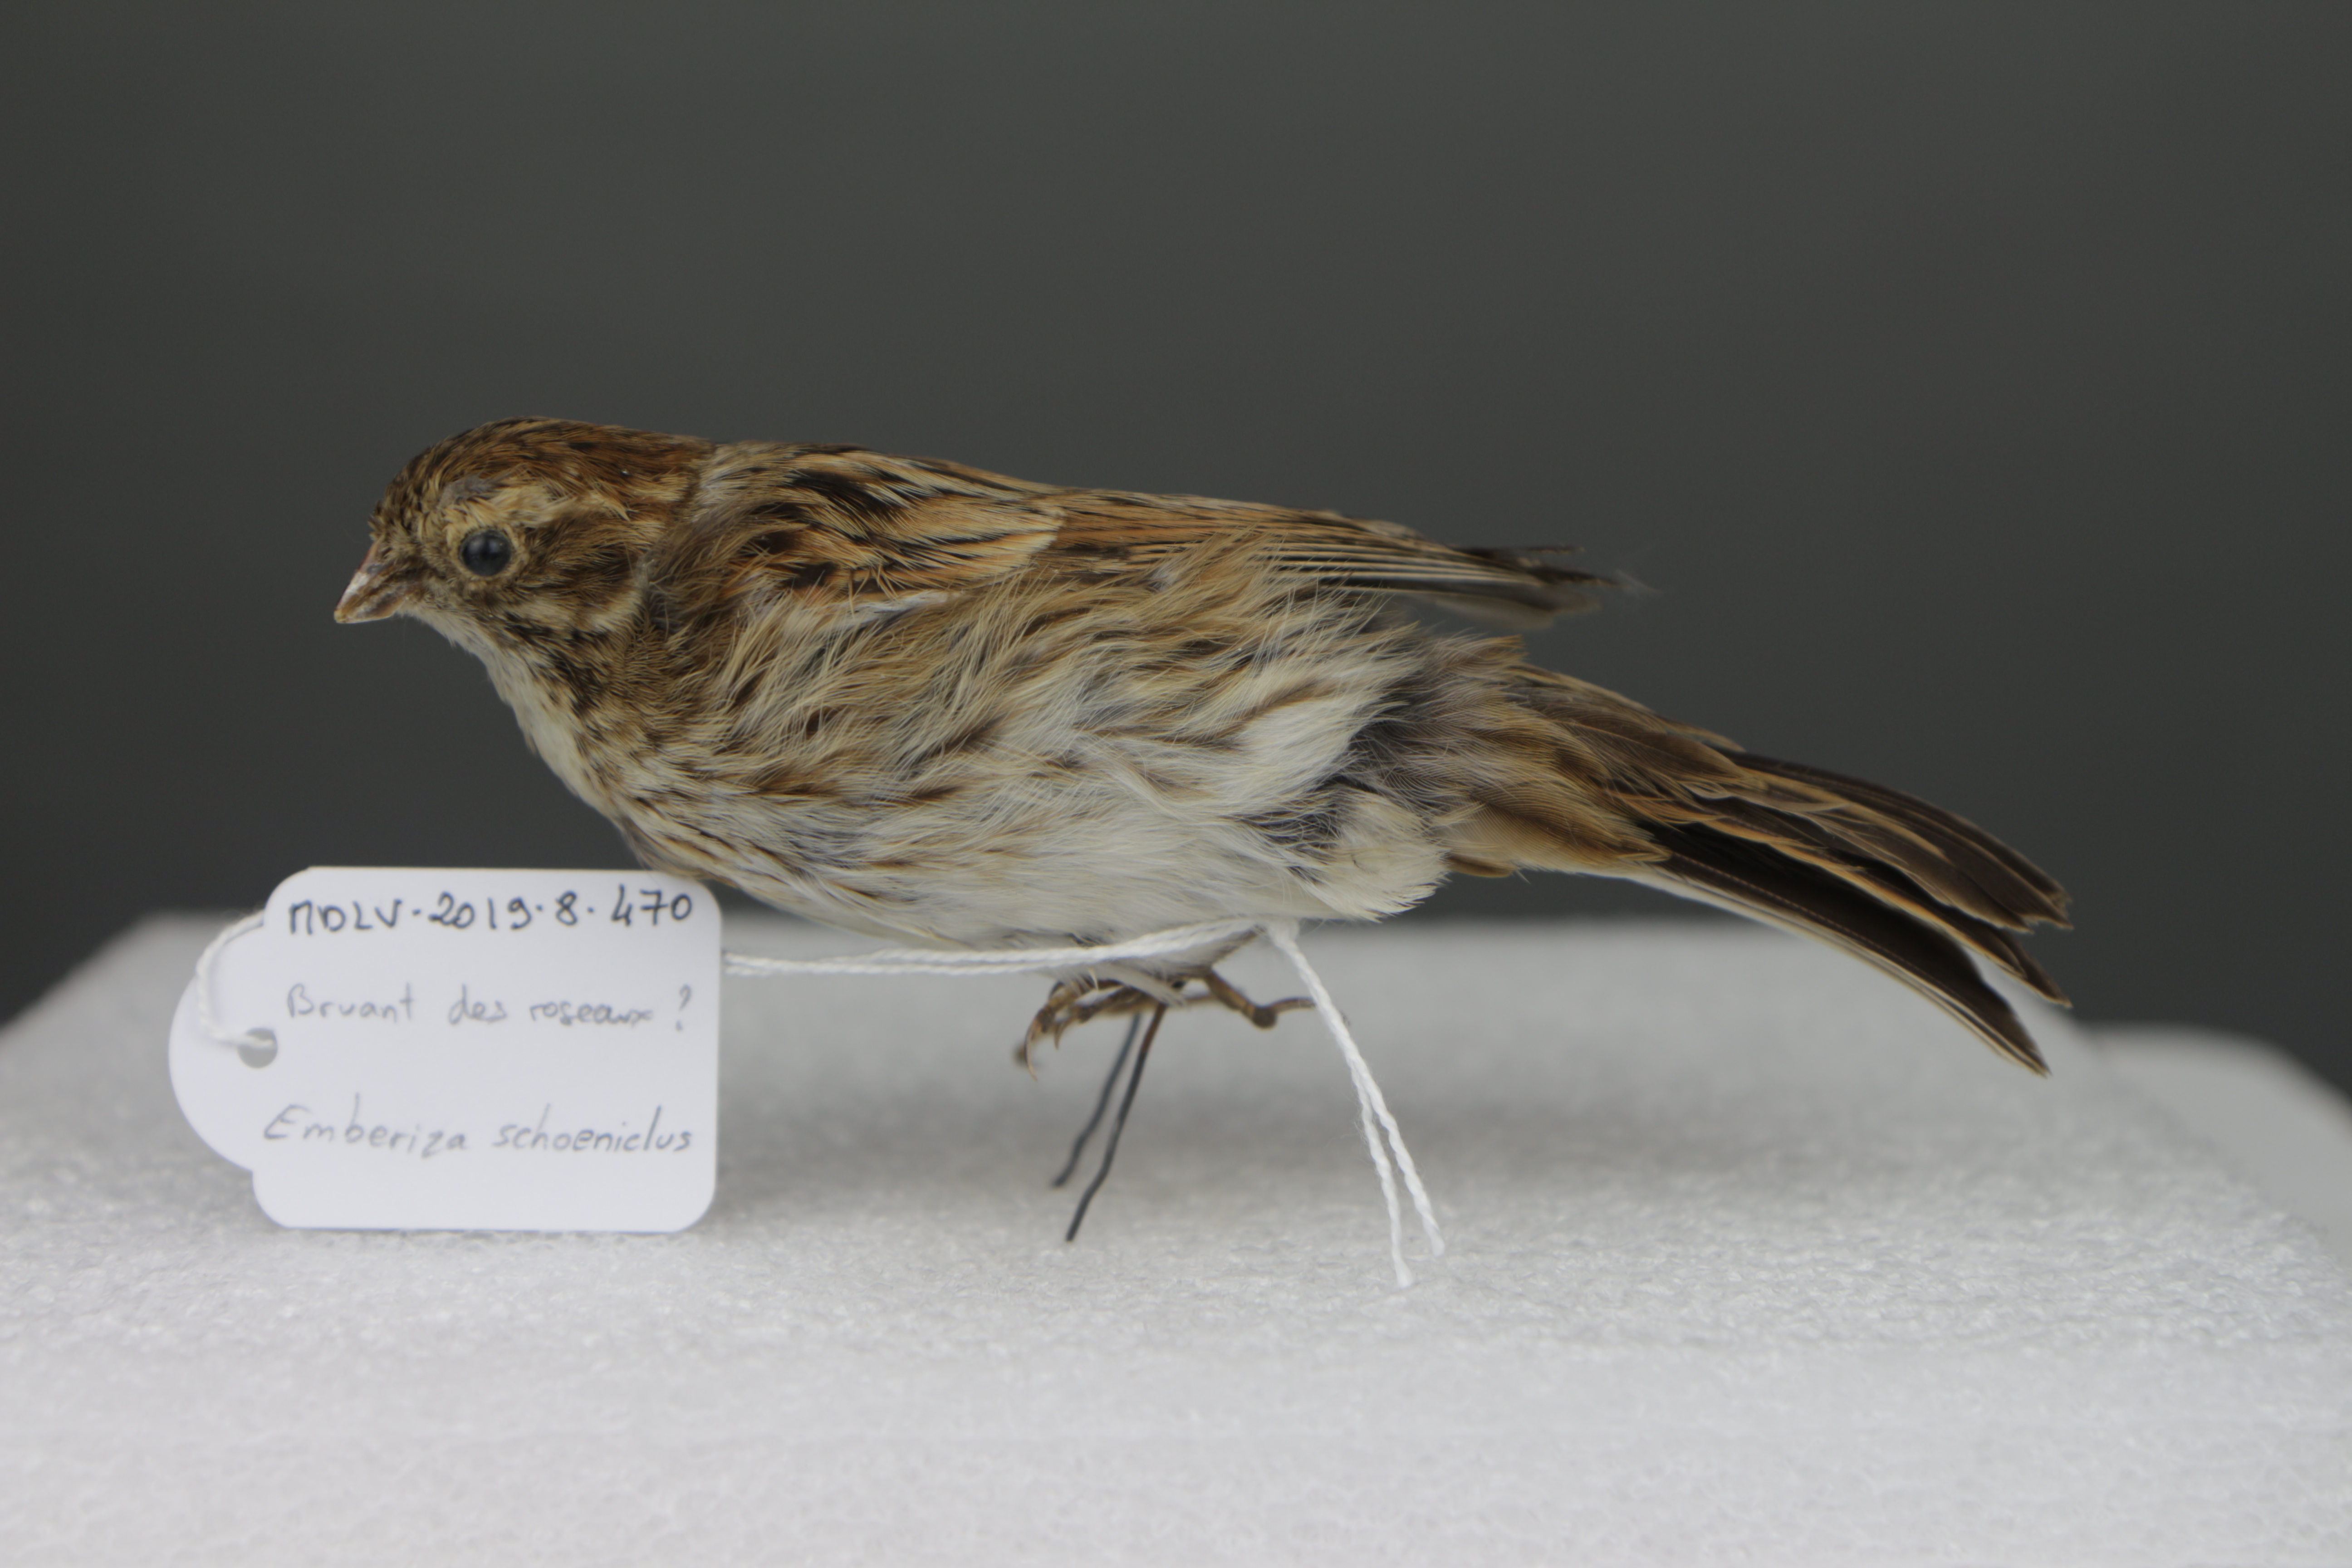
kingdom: Animalia
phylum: Chordata
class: Aves
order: Passeriformes
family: Emberizidae
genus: Emberiza
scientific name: Emberiza schoeniclus
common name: Reed bunting
